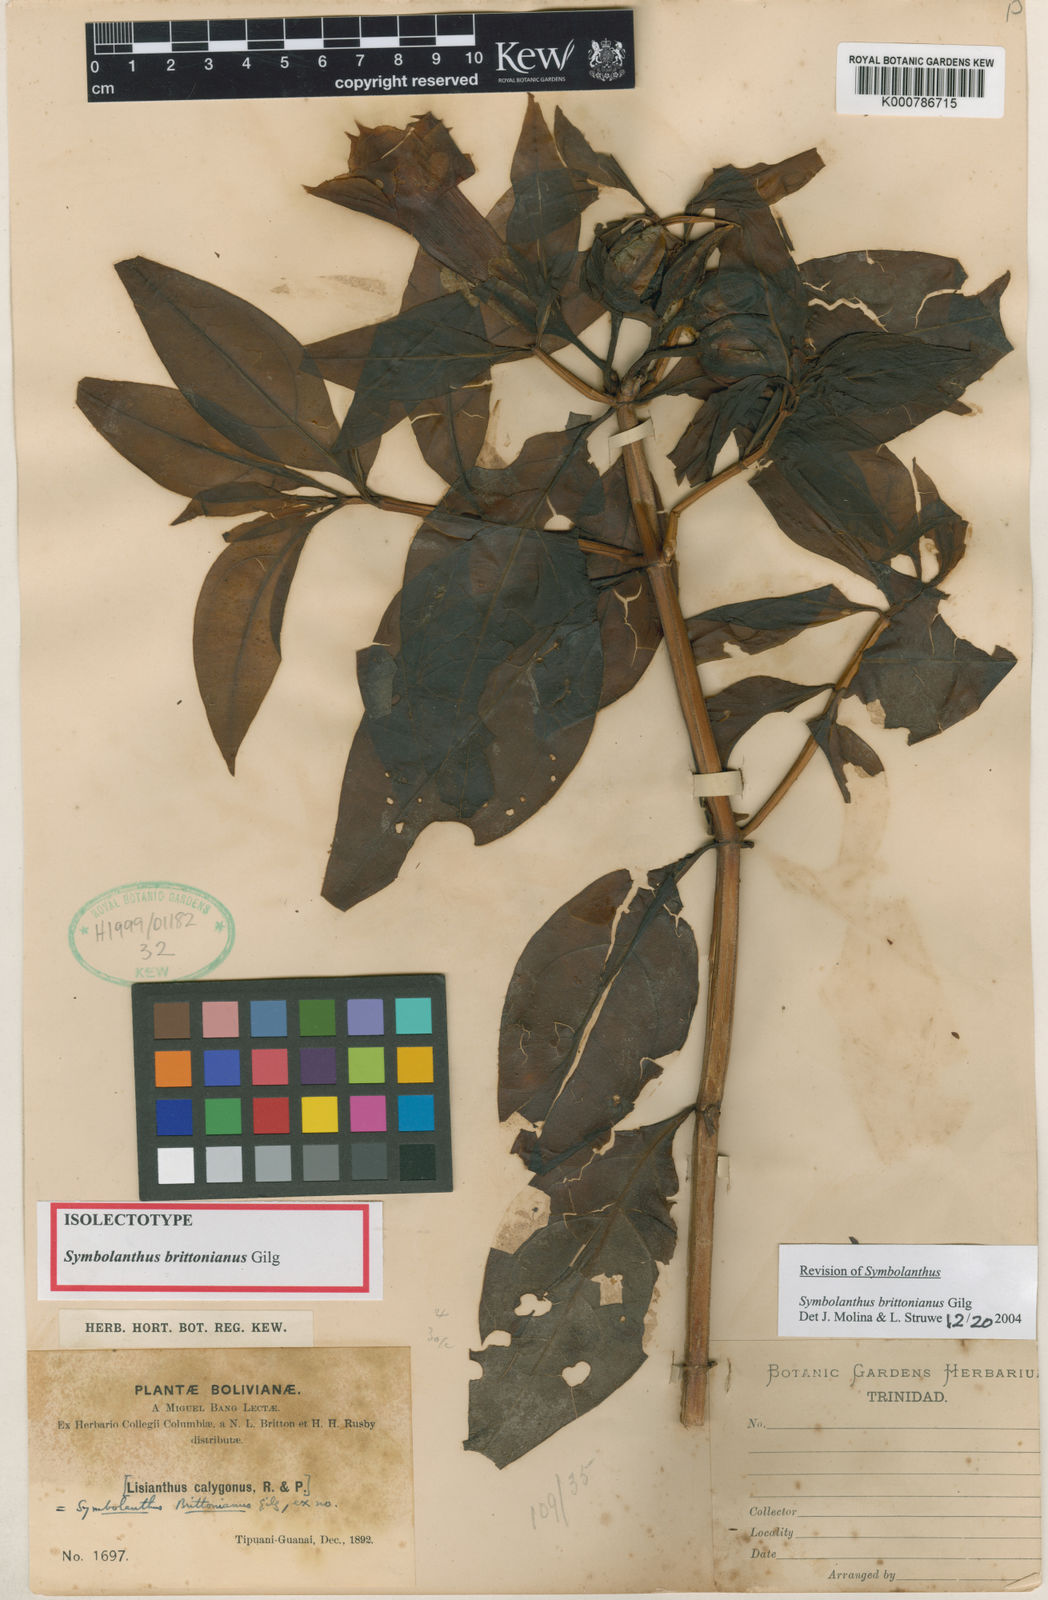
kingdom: Plantae
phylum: Tracheophyta
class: Magnoliopsida
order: Gentianales
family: Gentianaceae
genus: Symbolanthus
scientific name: Symbolanthus brittonianus
